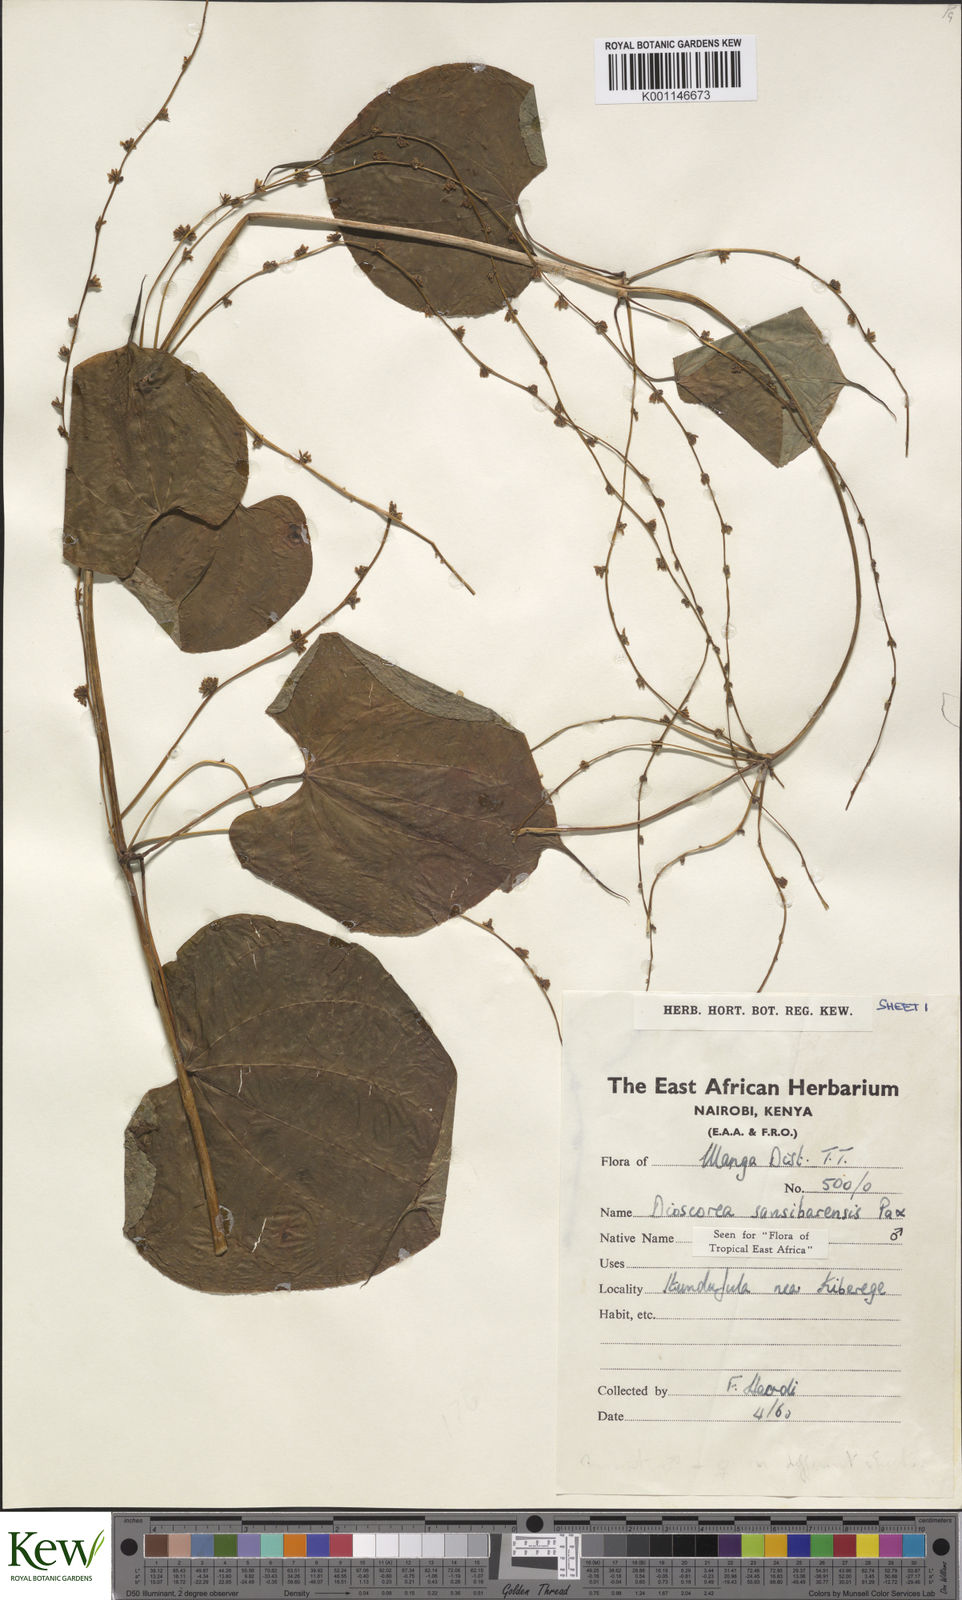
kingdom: Plantae
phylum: Tracheophyta
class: Liliopsida
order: Dioscoreales
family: Dioscoreaceae
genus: Dioscorea
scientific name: Dioscorea sansibarensis
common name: Zanzibar yam
